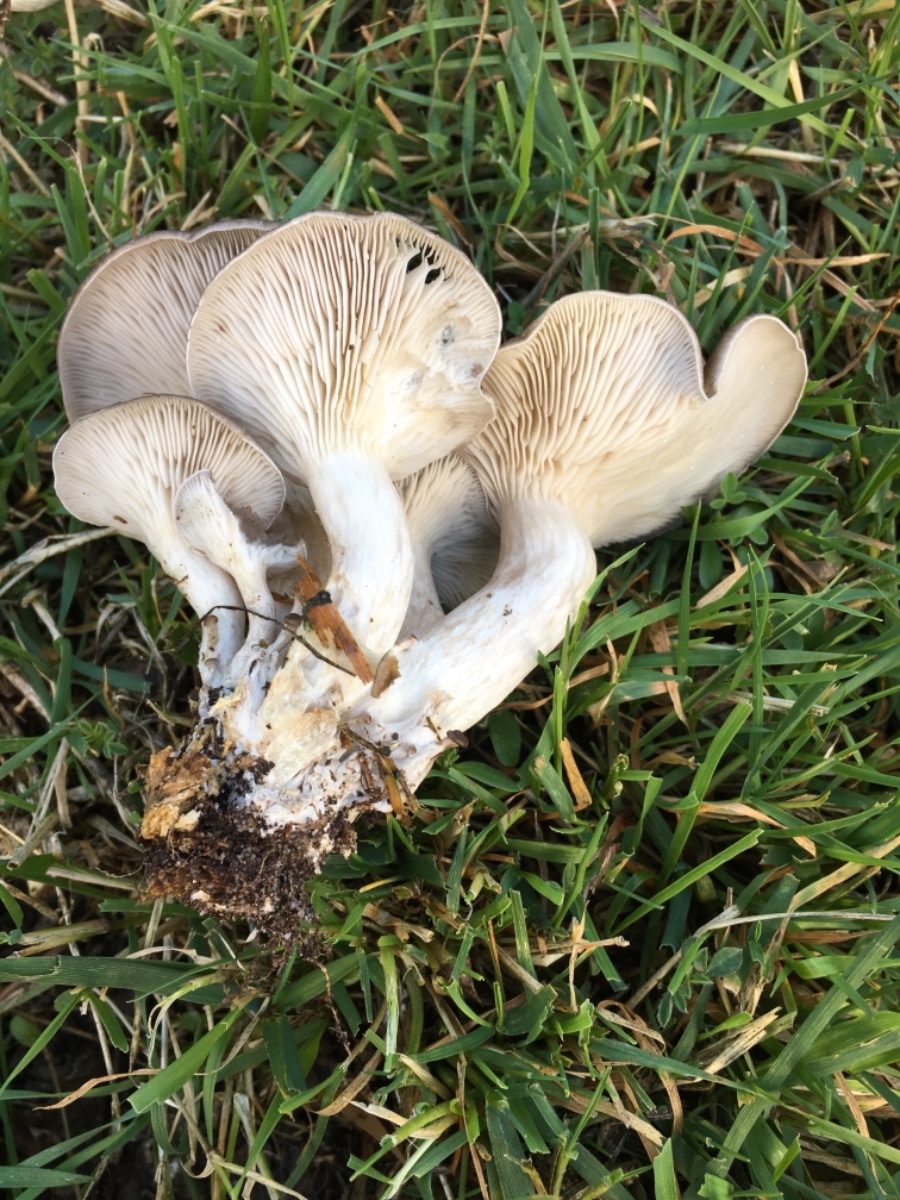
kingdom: Fungi
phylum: Basidiomycota
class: Agaricomycetes
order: Agaricales
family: Pleurotaceae
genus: Pleurotus
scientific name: Pleurotus ostreatus
